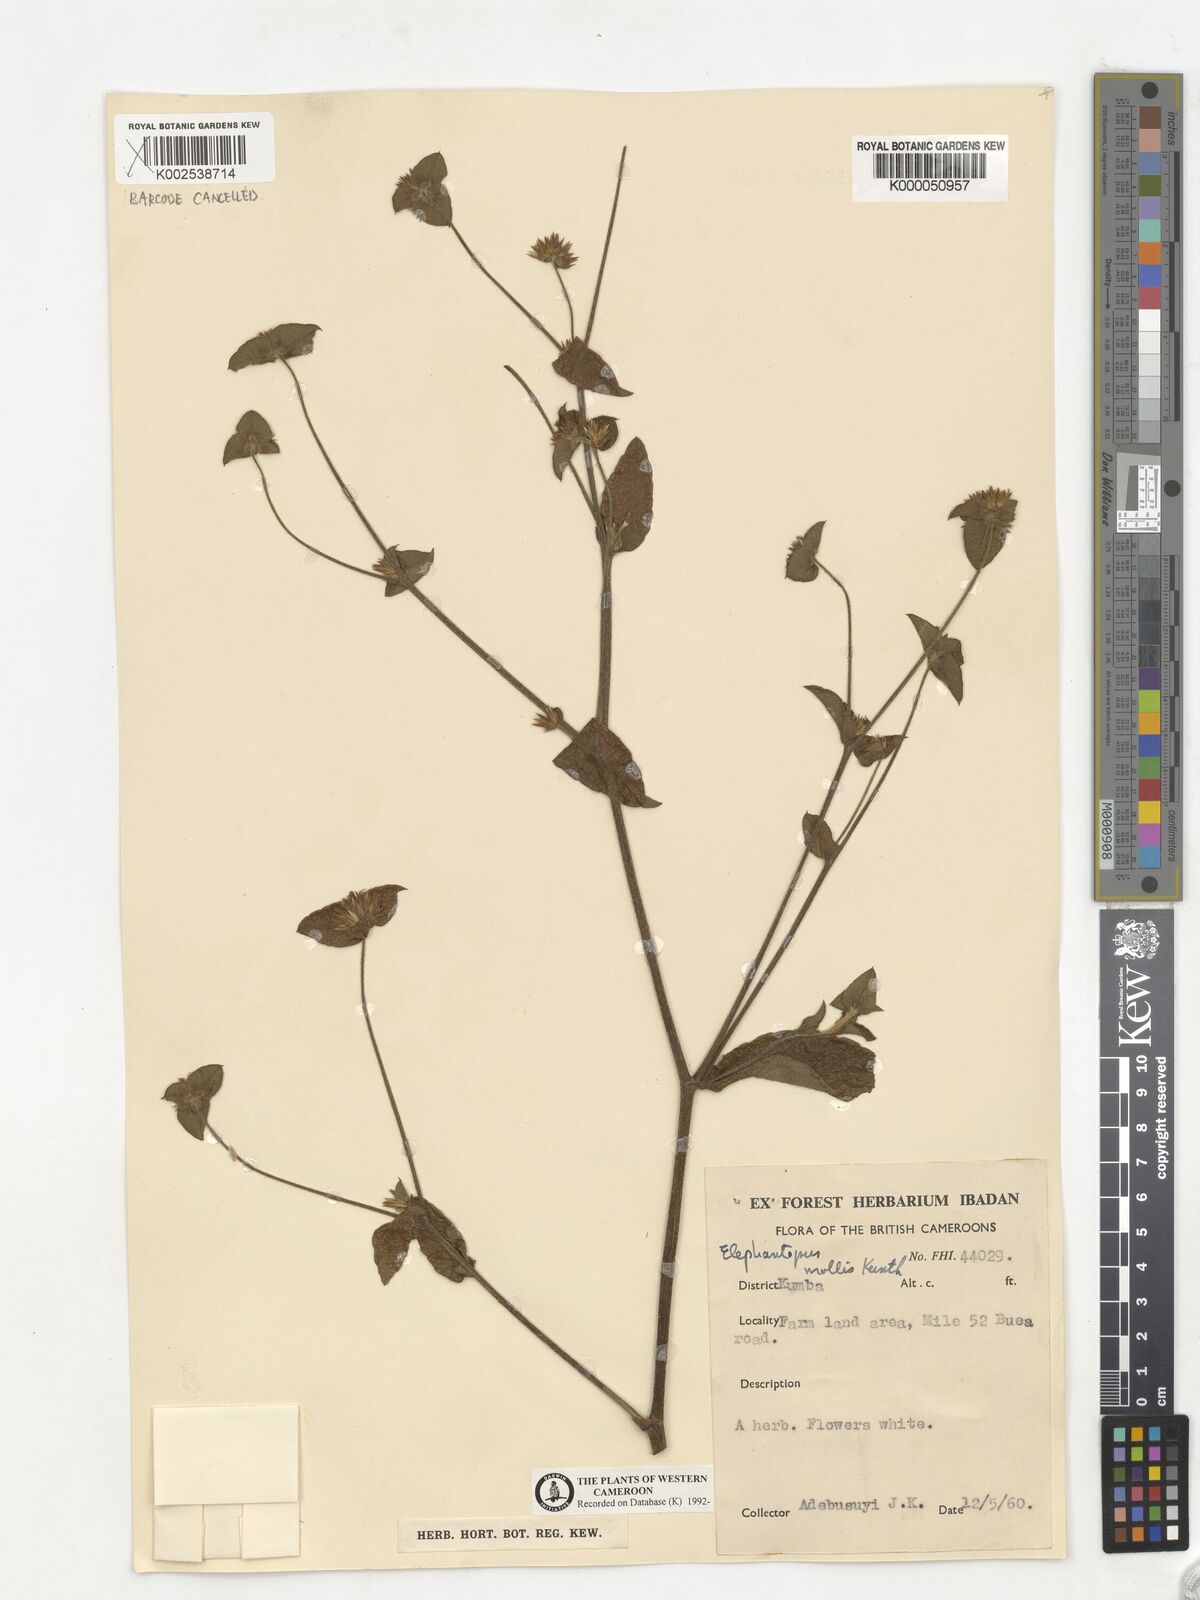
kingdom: Plantae
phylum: Tracheophyta
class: Magnoliopsida
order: Asterales
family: Asteraceae
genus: Elephantopus
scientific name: Elephantopus mollis
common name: Soft elephantsfoot
